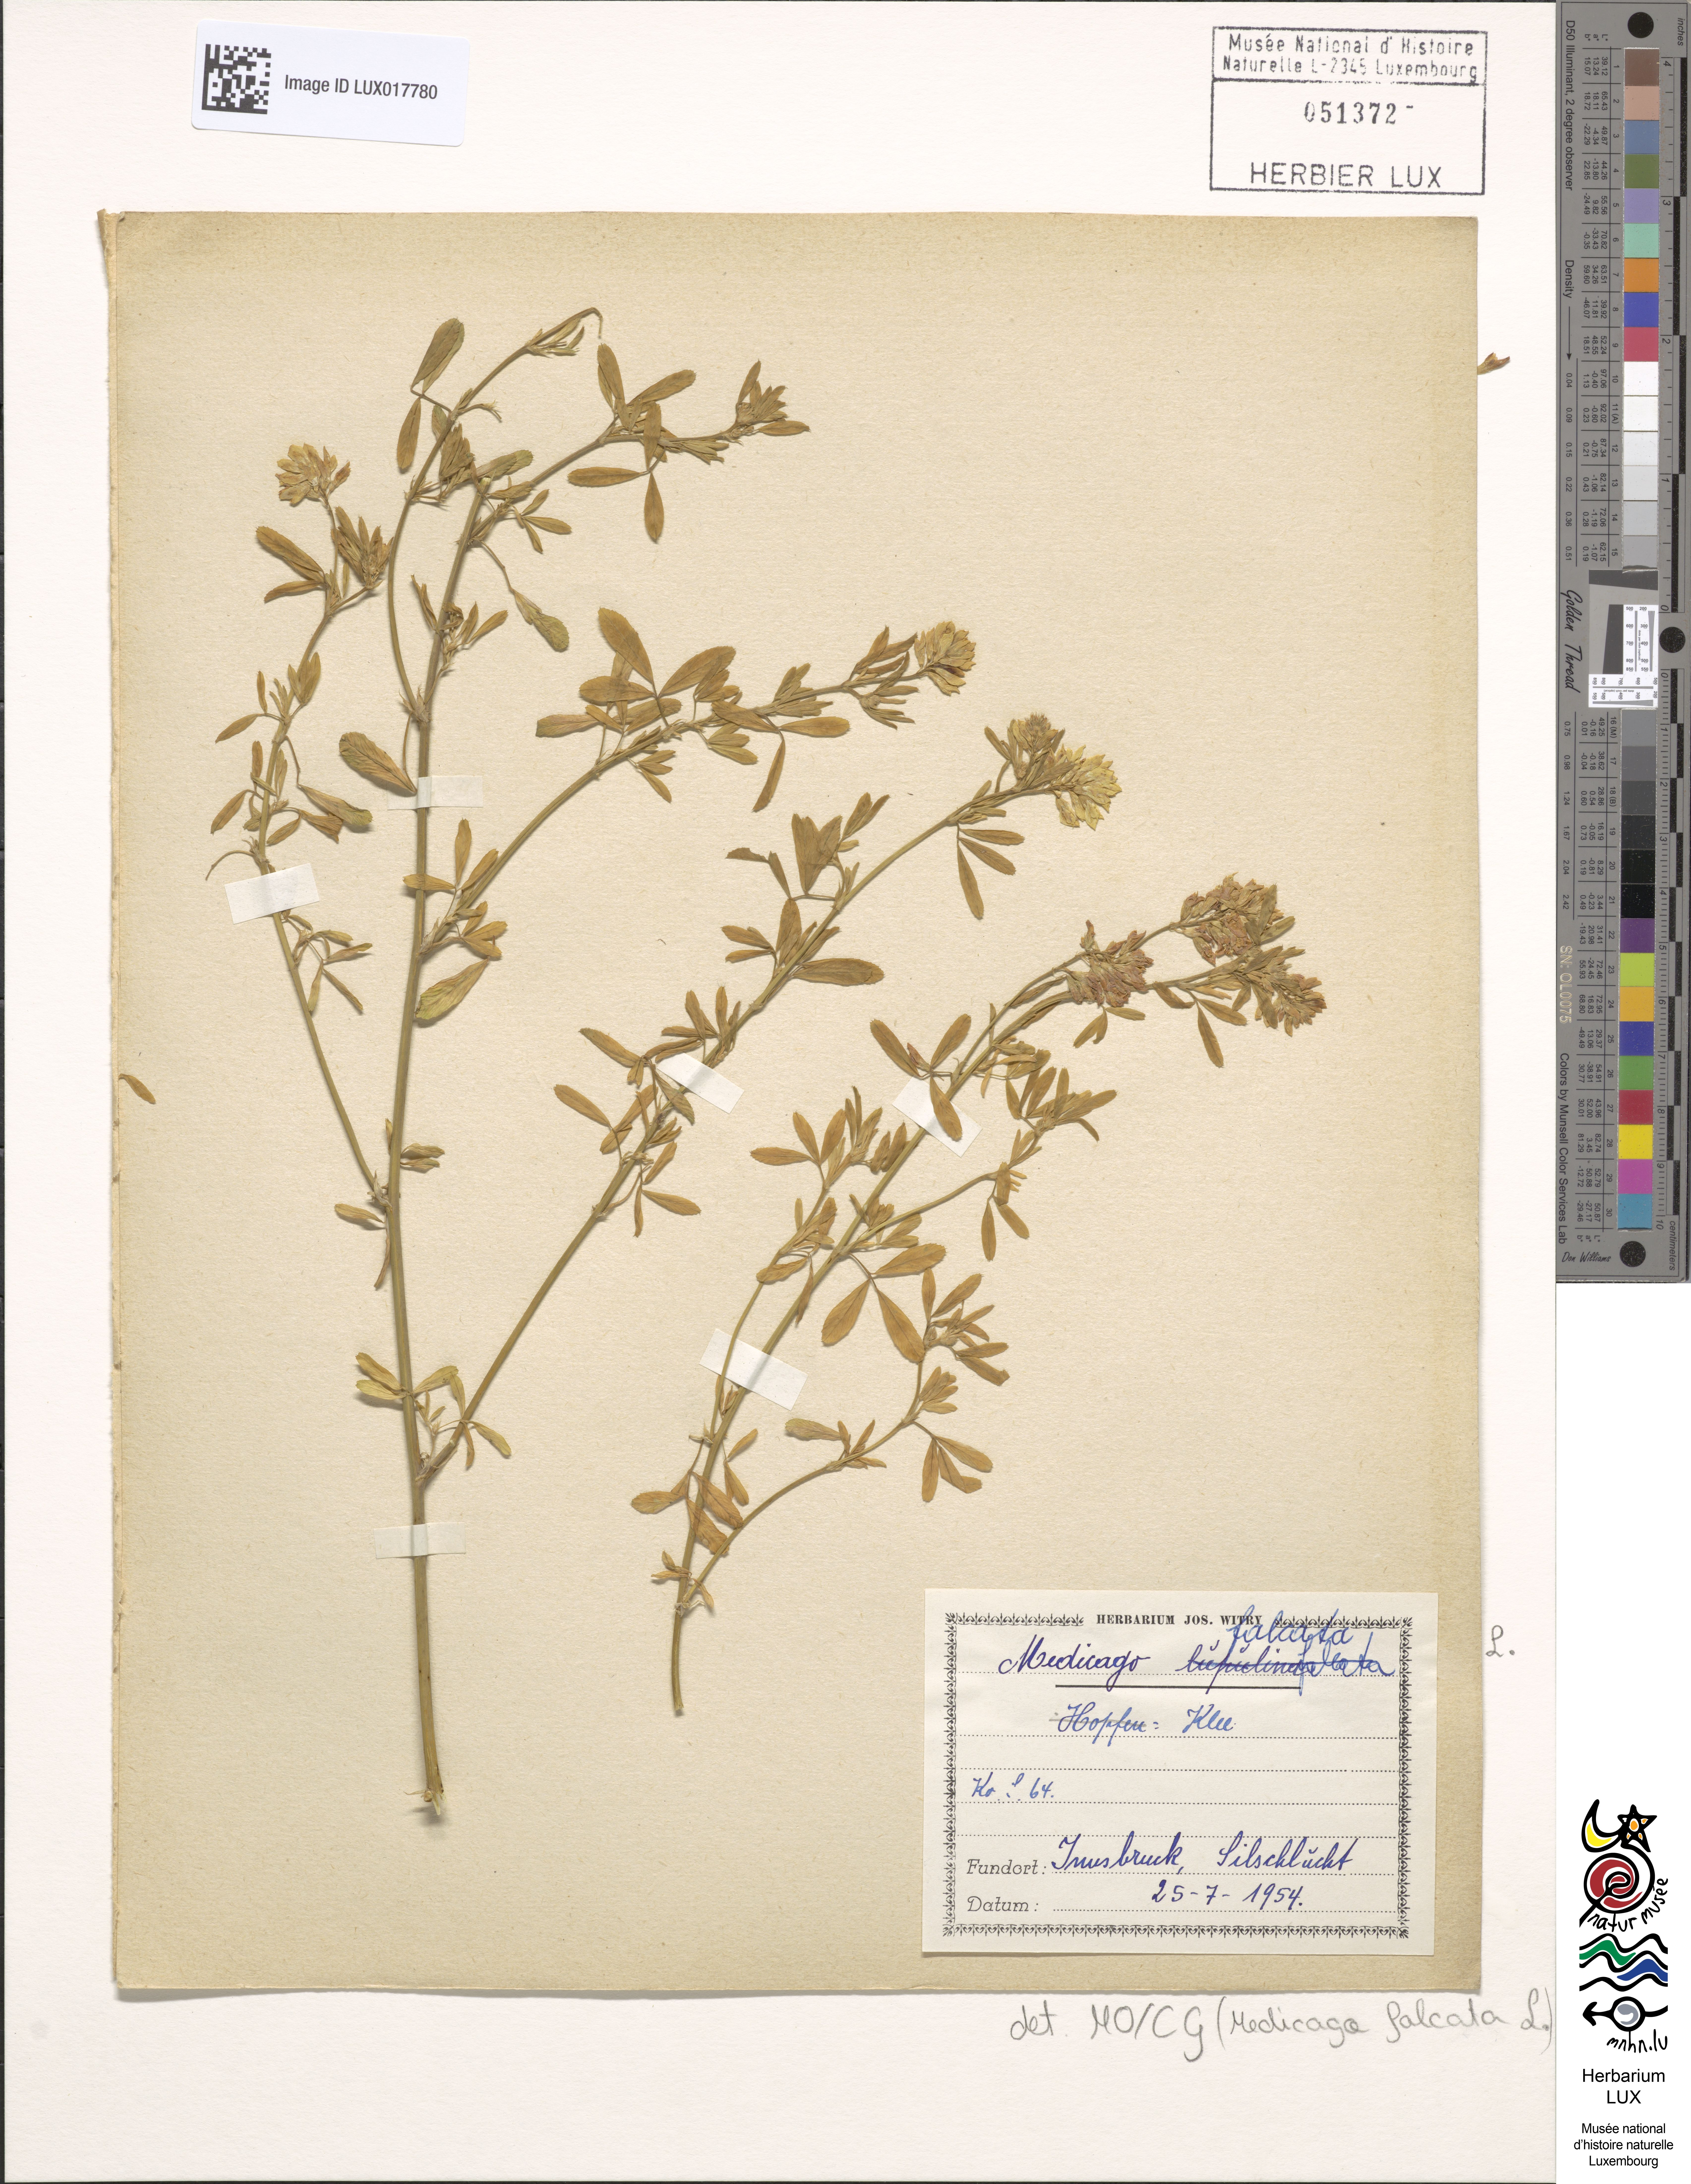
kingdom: Plantae
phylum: Tracheophyta
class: Magnoliopsida
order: Fabales
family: Fabaceae
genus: Medicago
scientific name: Medicago falcata
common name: Sickle medick
